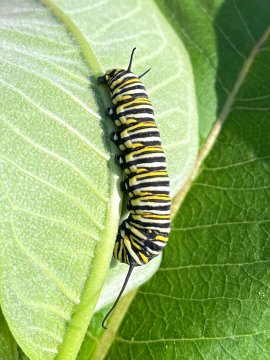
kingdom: Animalia
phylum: Arthropoda
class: Insecta
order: Lepidoptera
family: Nymphalidae
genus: Danaus
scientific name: Danaus plexippus
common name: Monarch
